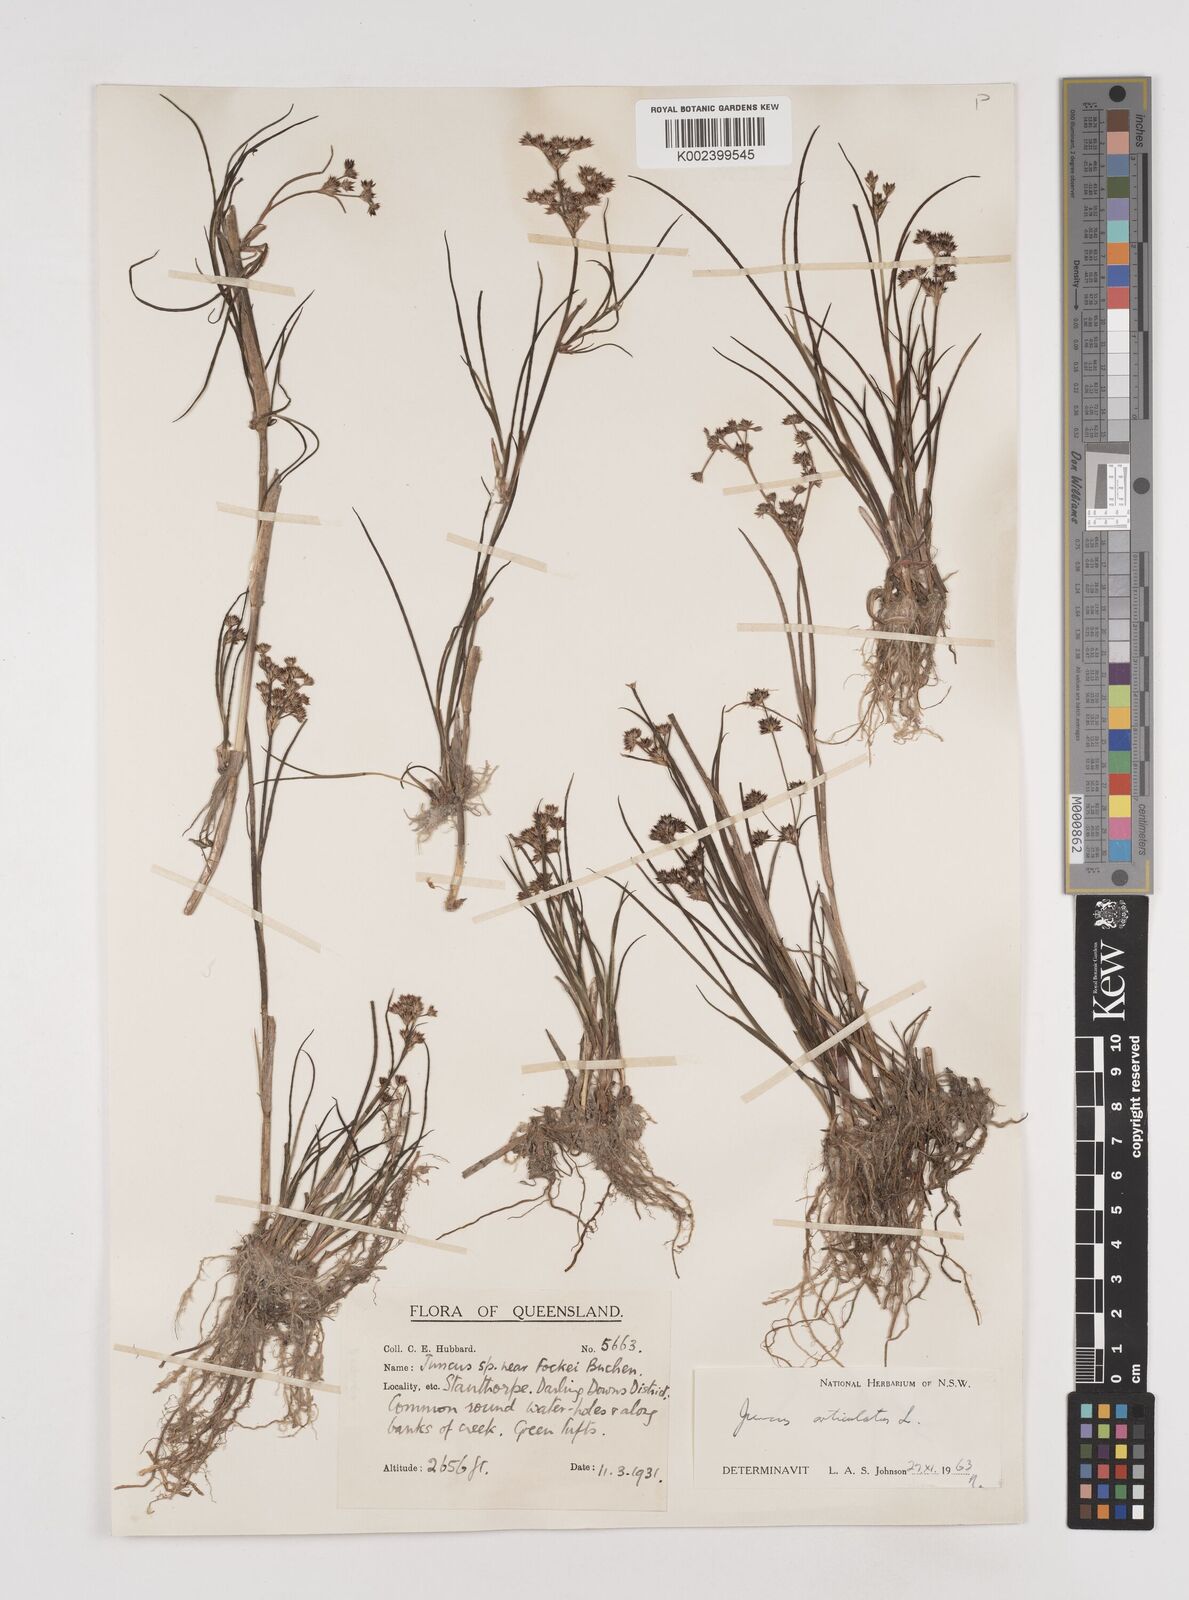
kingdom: Plantae
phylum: Tracheophyta
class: Liliopsida
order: Poales
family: Juncaceae
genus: Juncus
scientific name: Juncus articulatus
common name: Jointed rush
